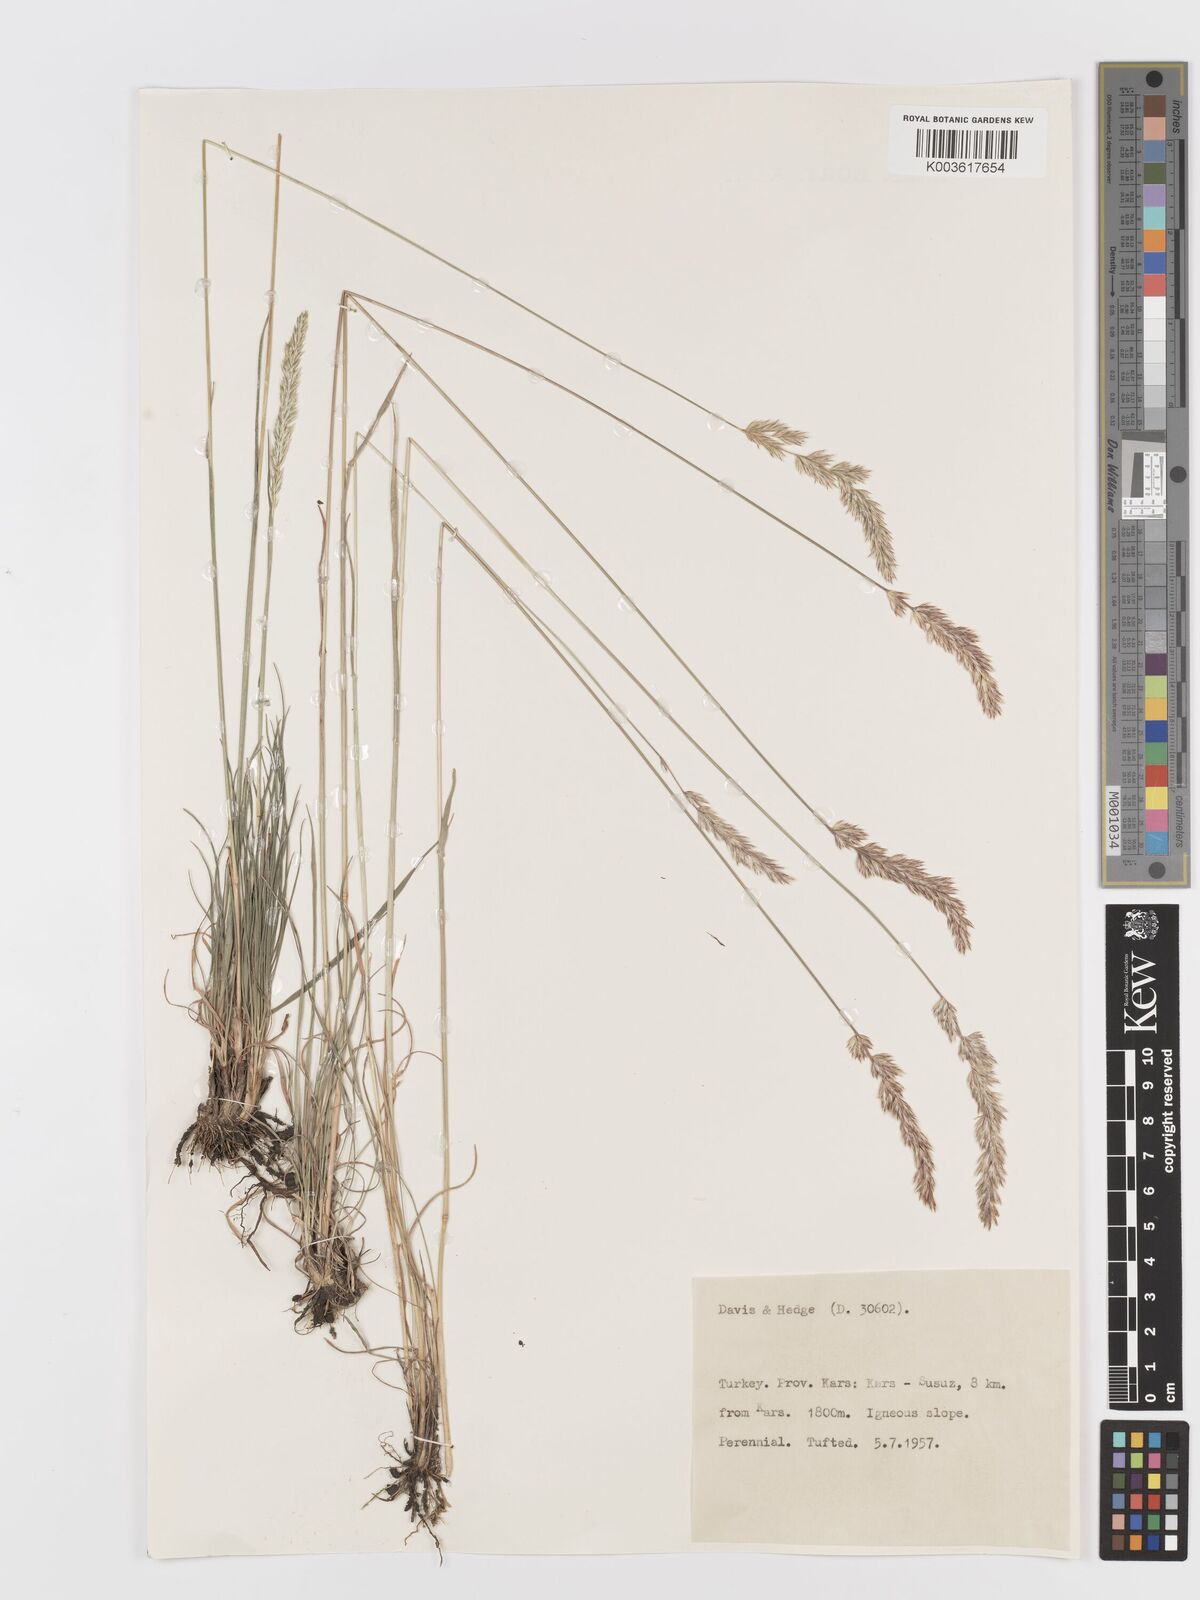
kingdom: Plantae
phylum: Tracheophyta
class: Liliopsida
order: Poales
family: Poaceae
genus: Koeleria
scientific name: Koeleria
